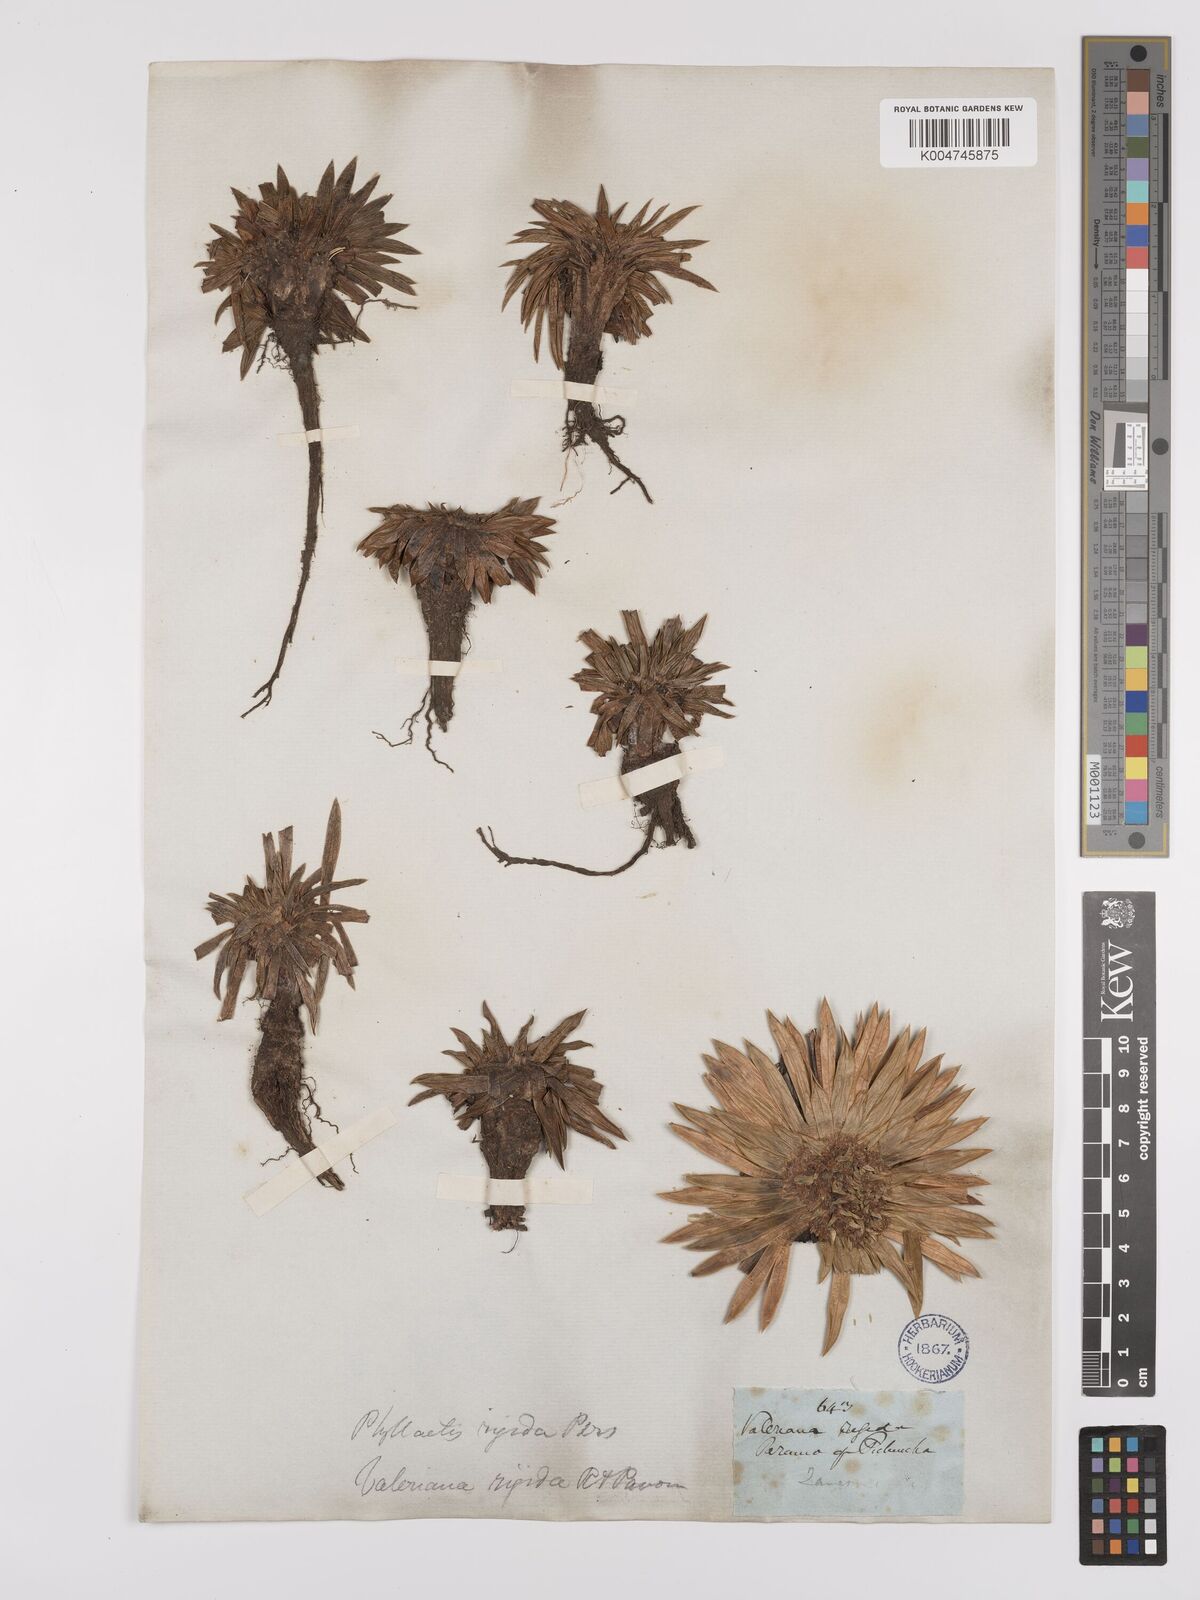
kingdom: Plantae
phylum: Tracheophyta
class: Magnoliopsida
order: Dipsacales
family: Caprifoliaceae
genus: Valeriana
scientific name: Valeriana rigida
